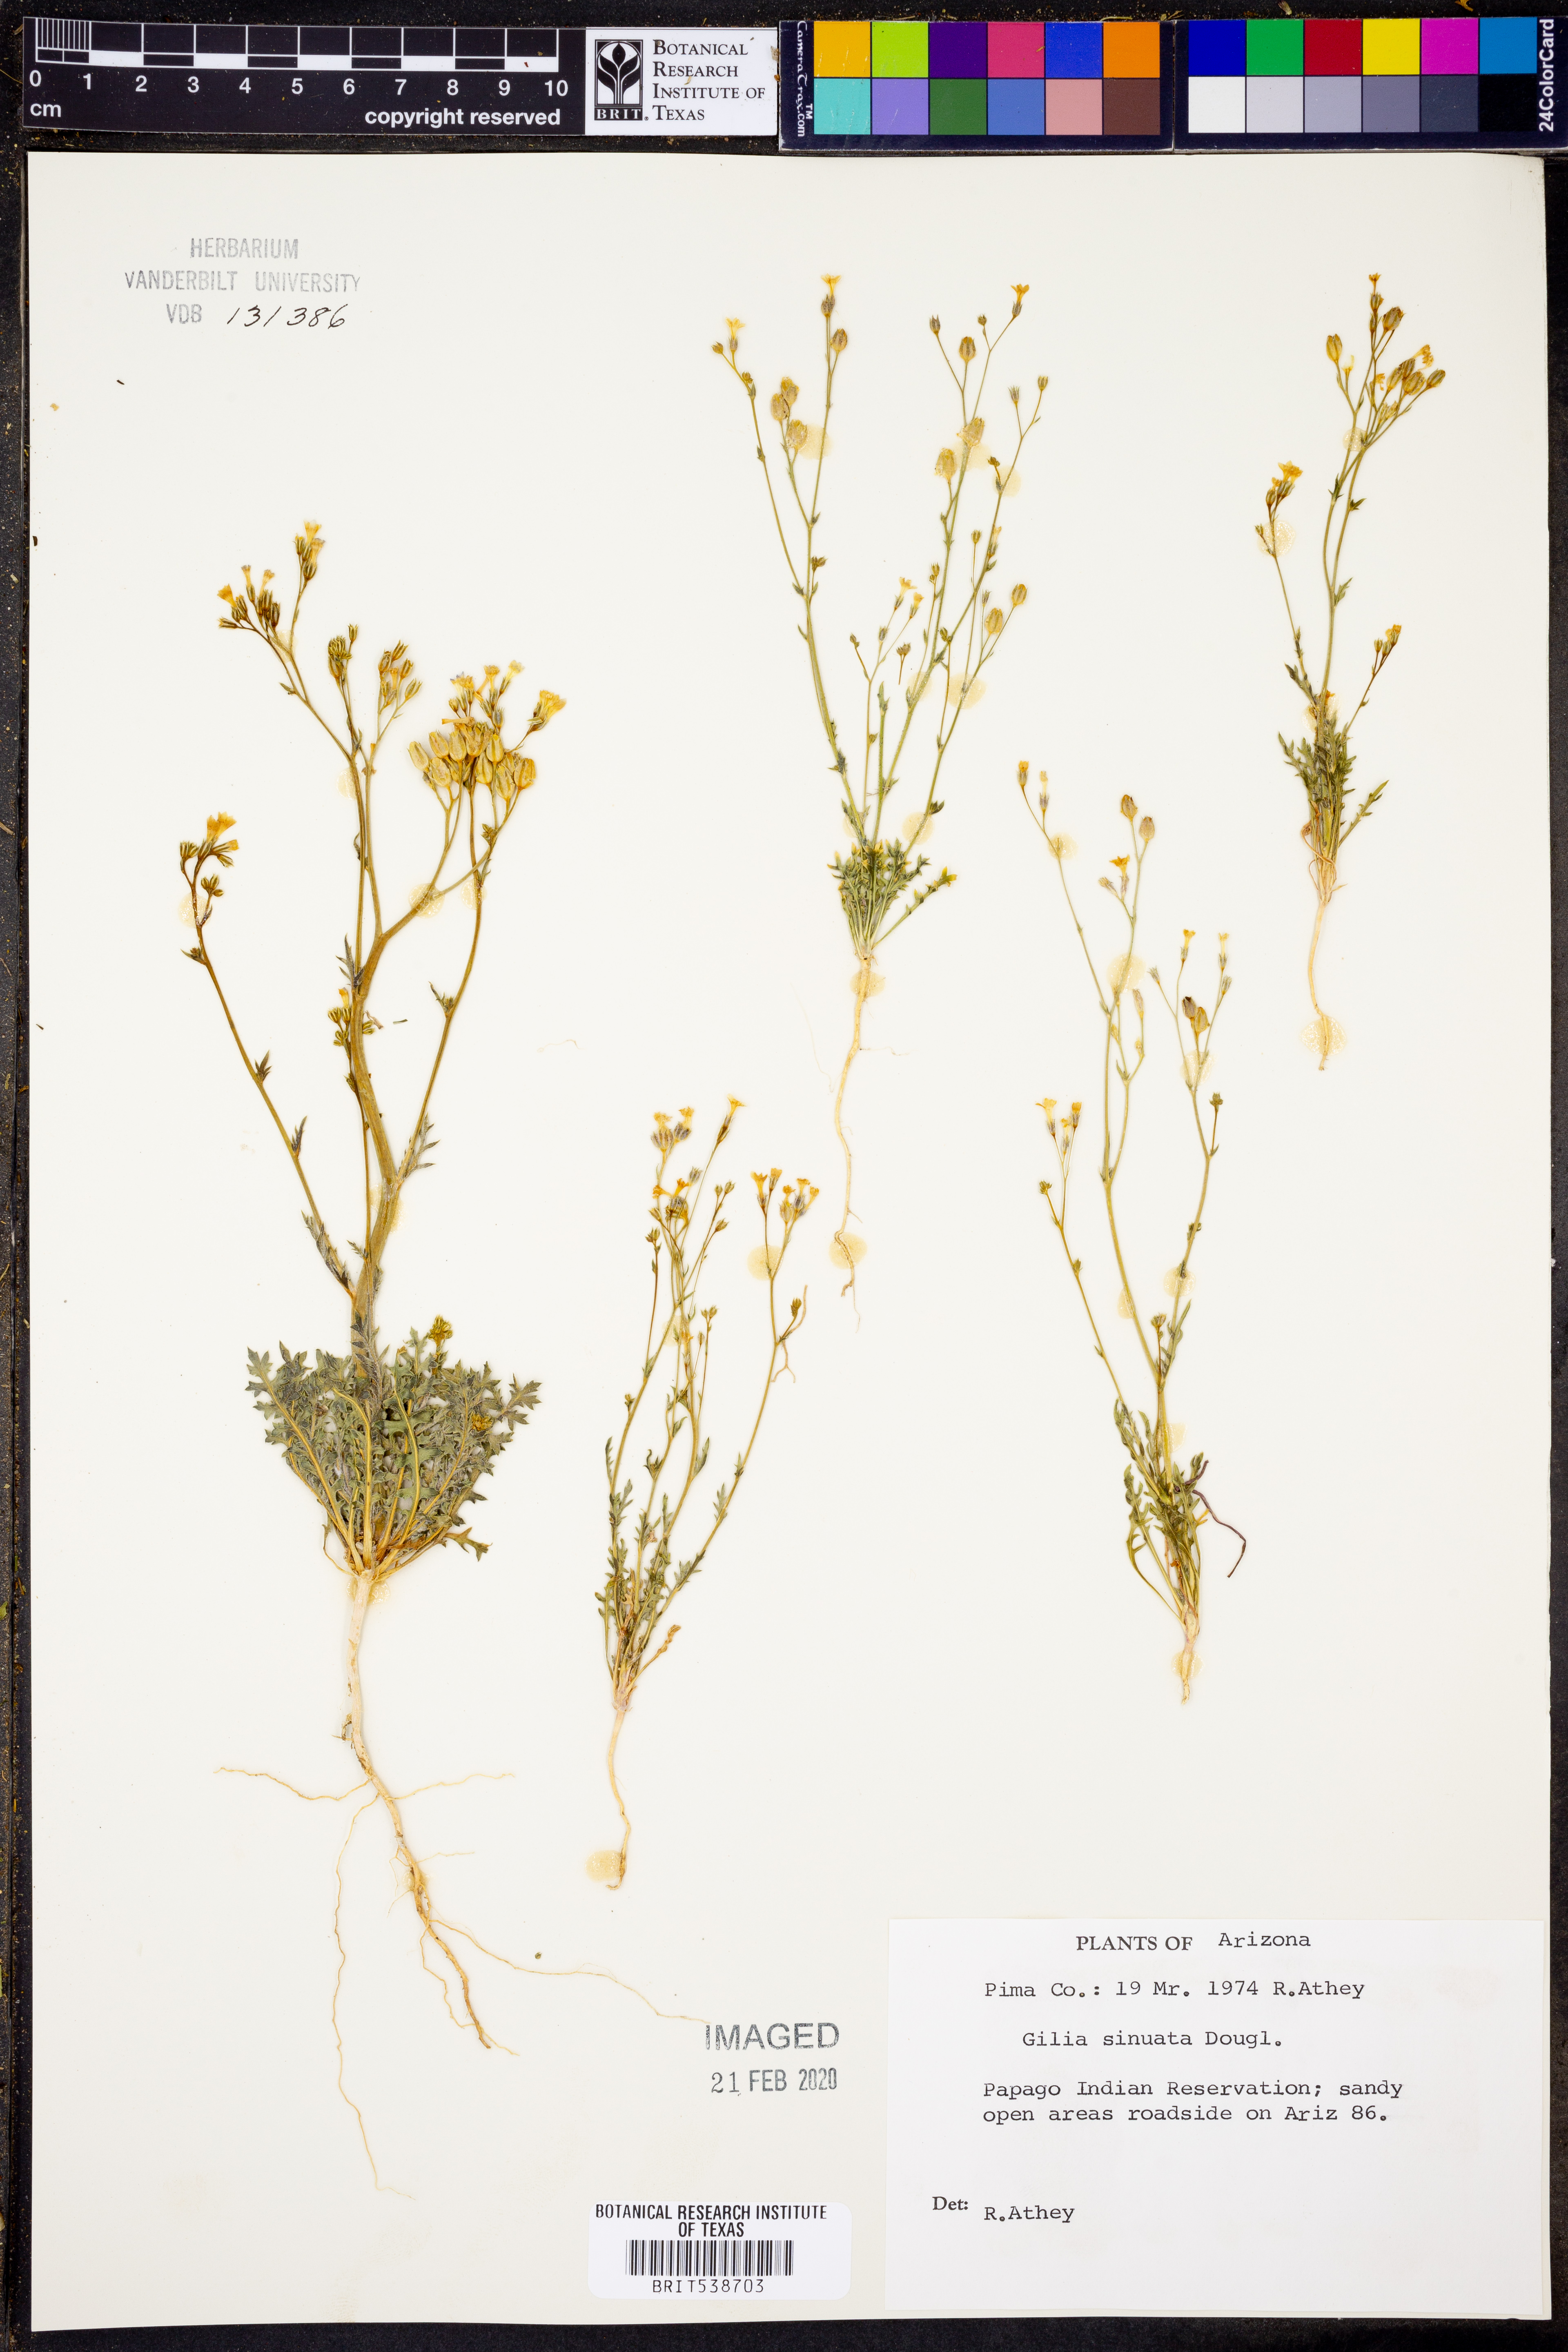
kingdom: Plantae
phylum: Tracheophyta
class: Magnoliopsida
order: Ericales
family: Polemoniaceae
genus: Gilia
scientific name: Gilia sinuata
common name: Rosy gilia
